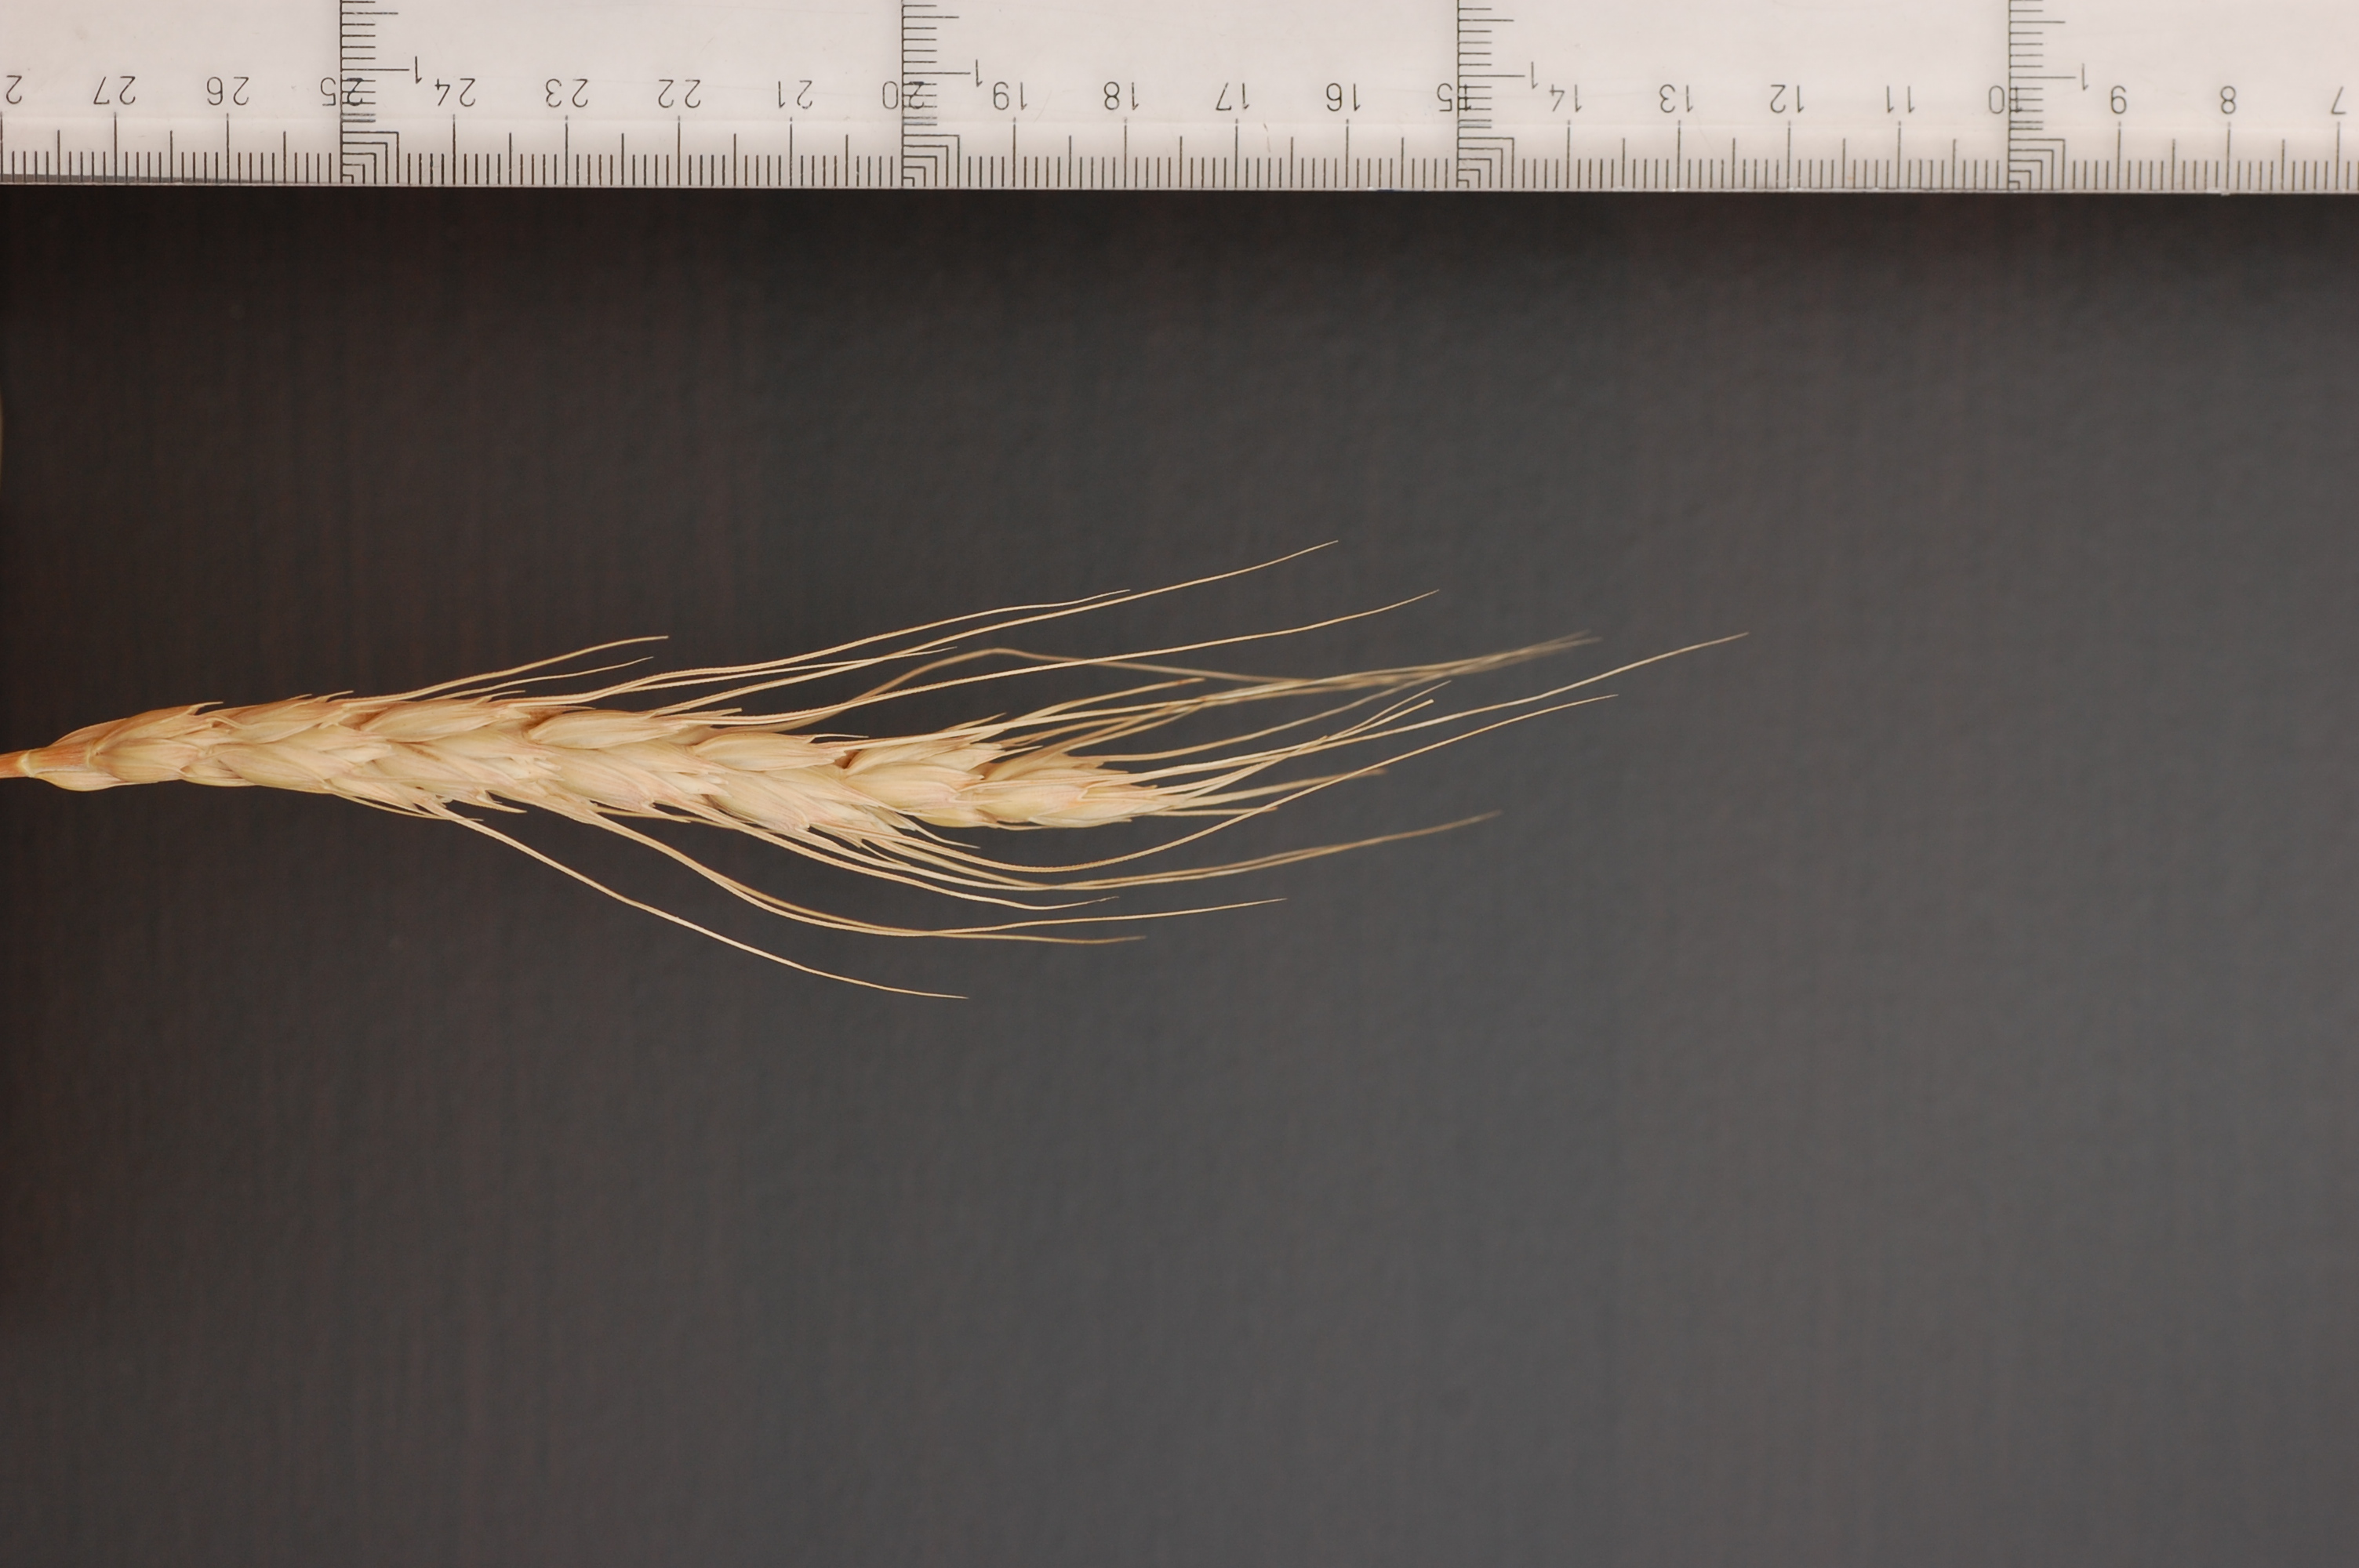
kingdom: Plantae
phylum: Tracheophyta
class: Liliopsida
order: Poales
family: Poaceae
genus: Triticum
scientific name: Triticum aestivum
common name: Common wheat
